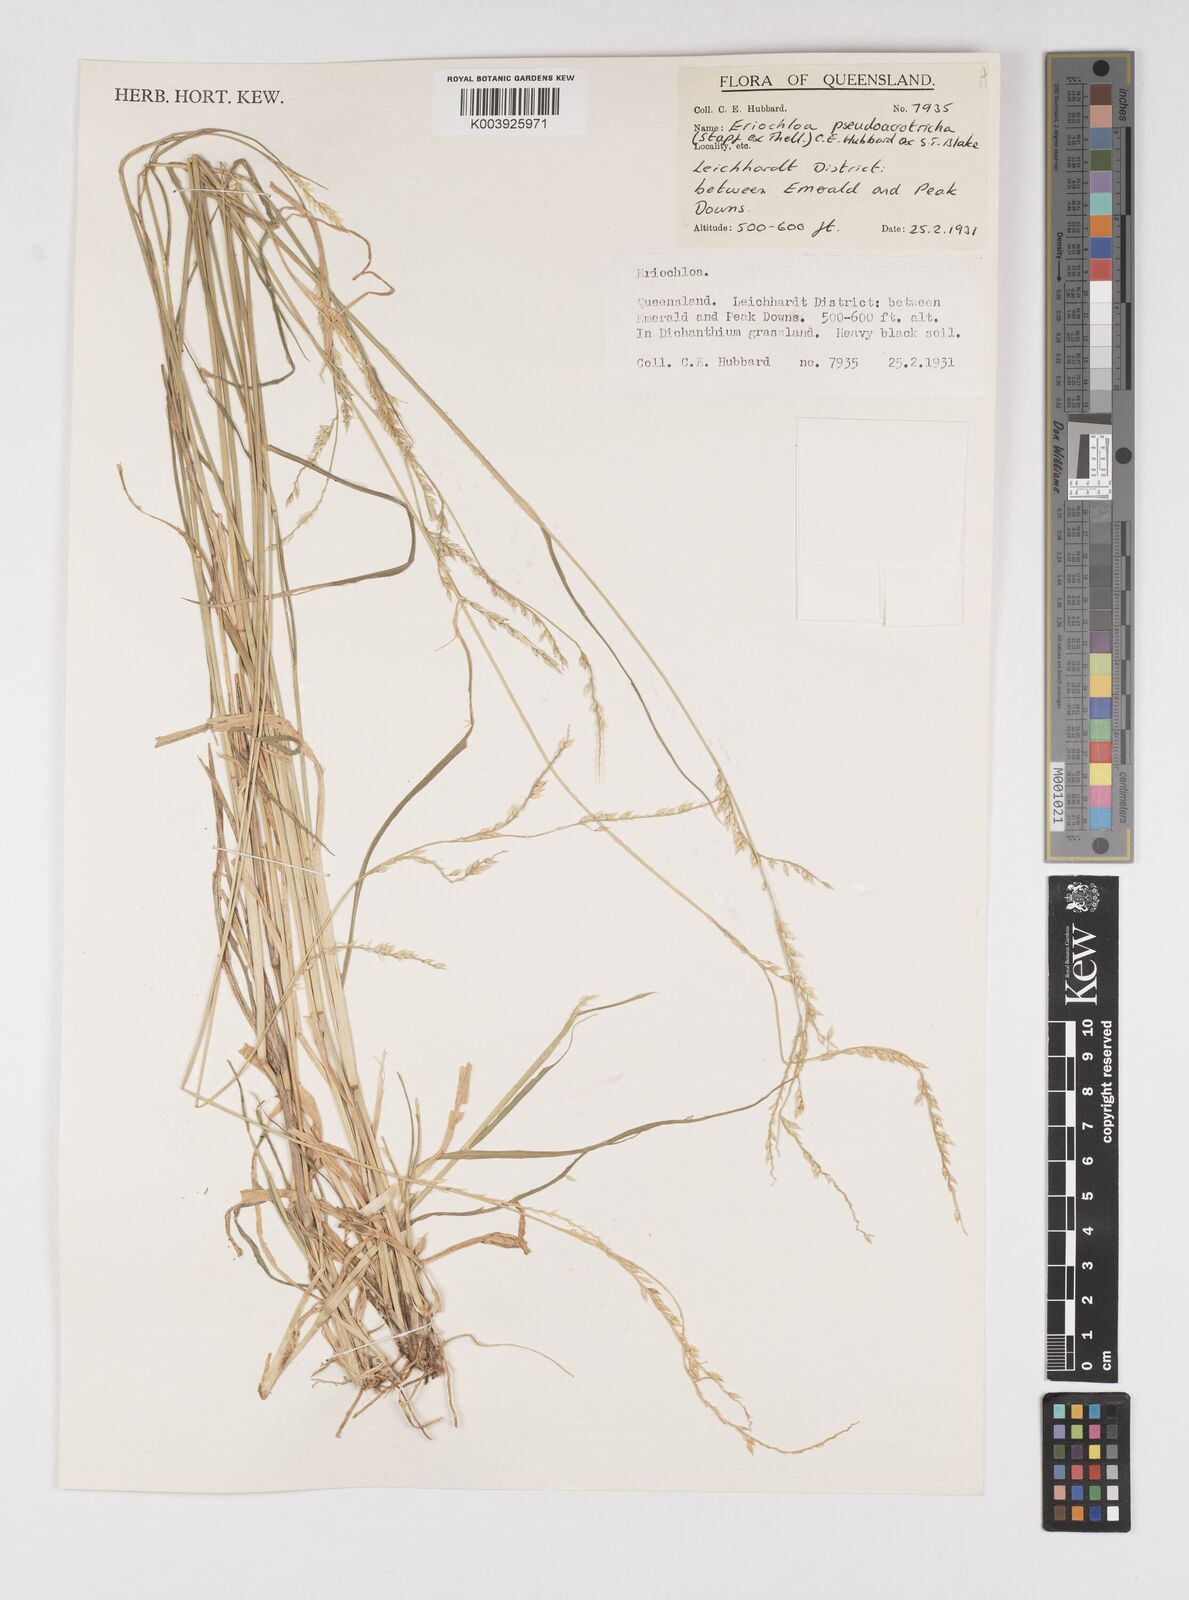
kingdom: Plantae
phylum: Tracheophyta
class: Liliopsida
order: Poales
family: Poaceae
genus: Eriochloa
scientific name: Eriochloa pseudoacrotricha
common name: Perennial cup-grass
